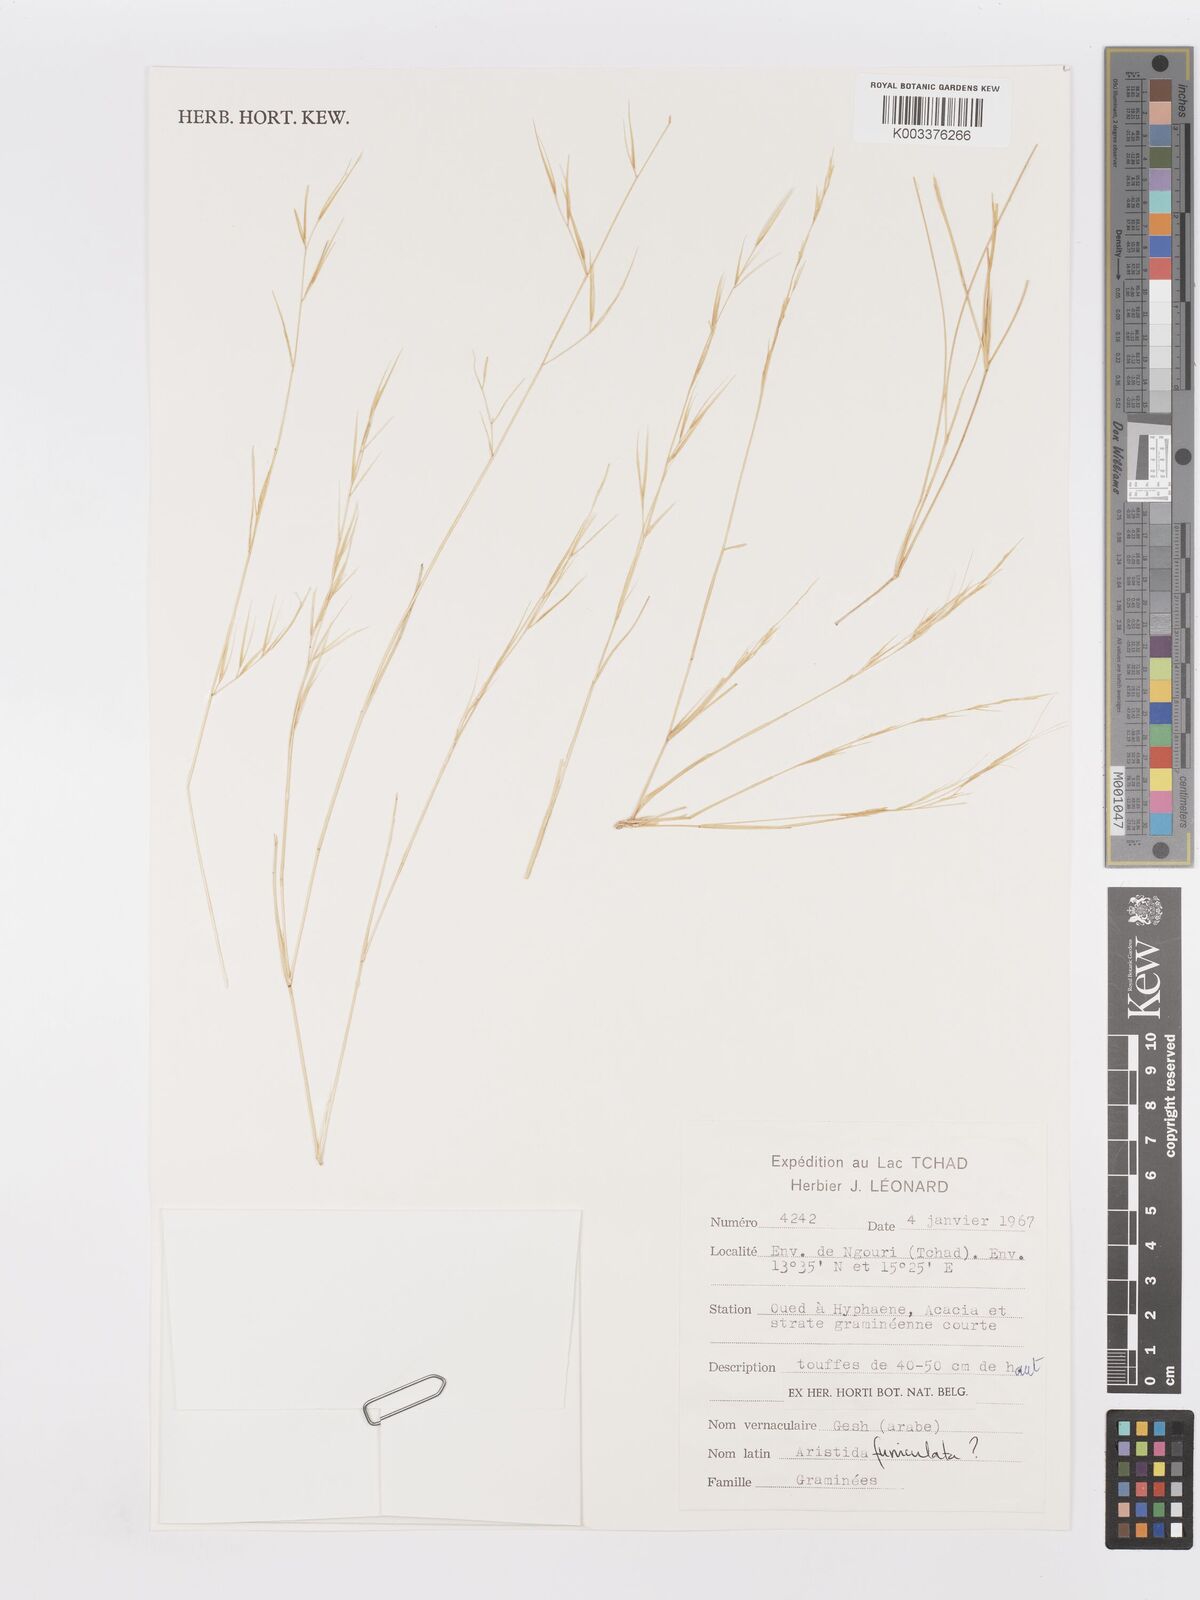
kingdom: Plantae
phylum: Tracheophyta
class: Liliopsida
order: Poales
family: Poaceae
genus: Aristida
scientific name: Aristida funiculata
